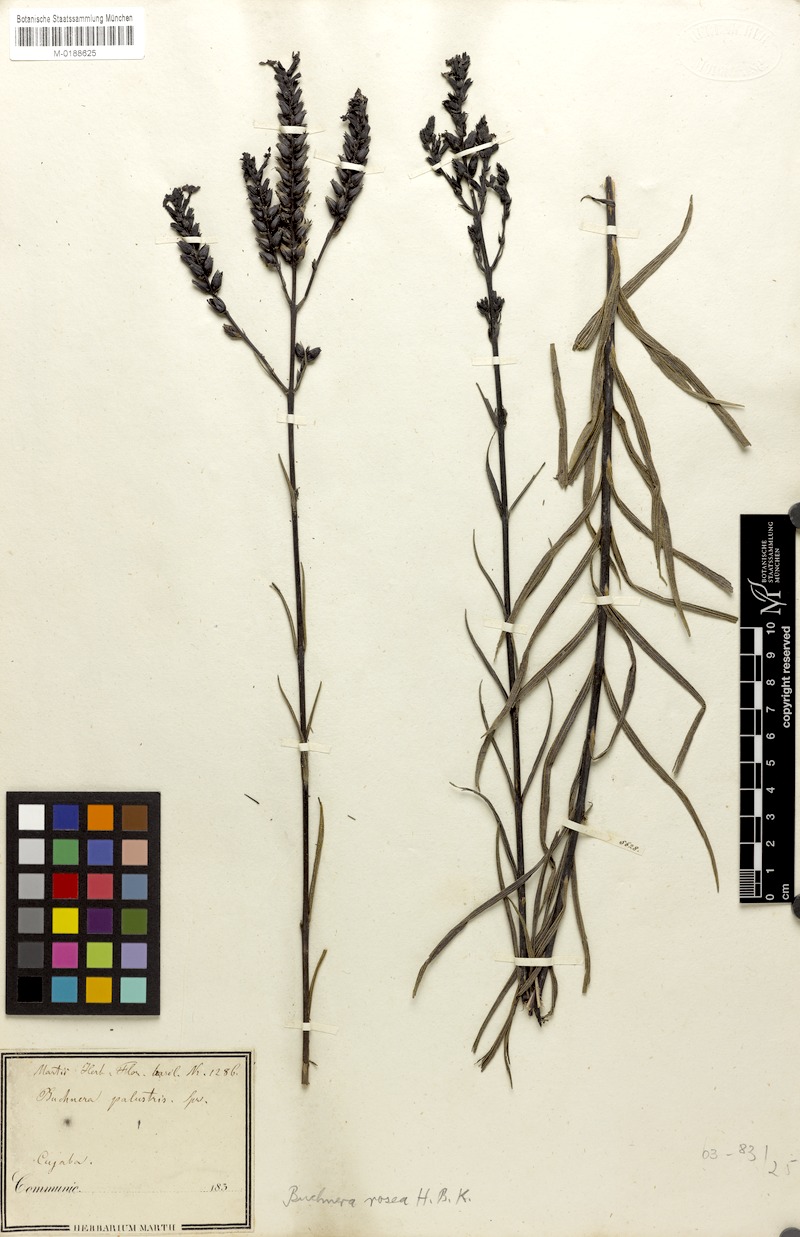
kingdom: Plantae
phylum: Tracheophyta
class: Magnoliopsida
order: Lamiales
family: Orobanchaceae
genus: Buchnera
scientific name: Buchnera rosea
